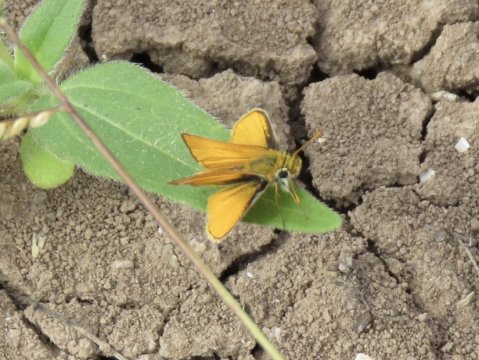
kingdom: Animalia
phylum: Arthropoda
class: Insecta
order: Lepidoptera
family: Hesperiidae
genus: Copaeodes
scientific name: Copaeodes minima
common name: Southern Skipperling
